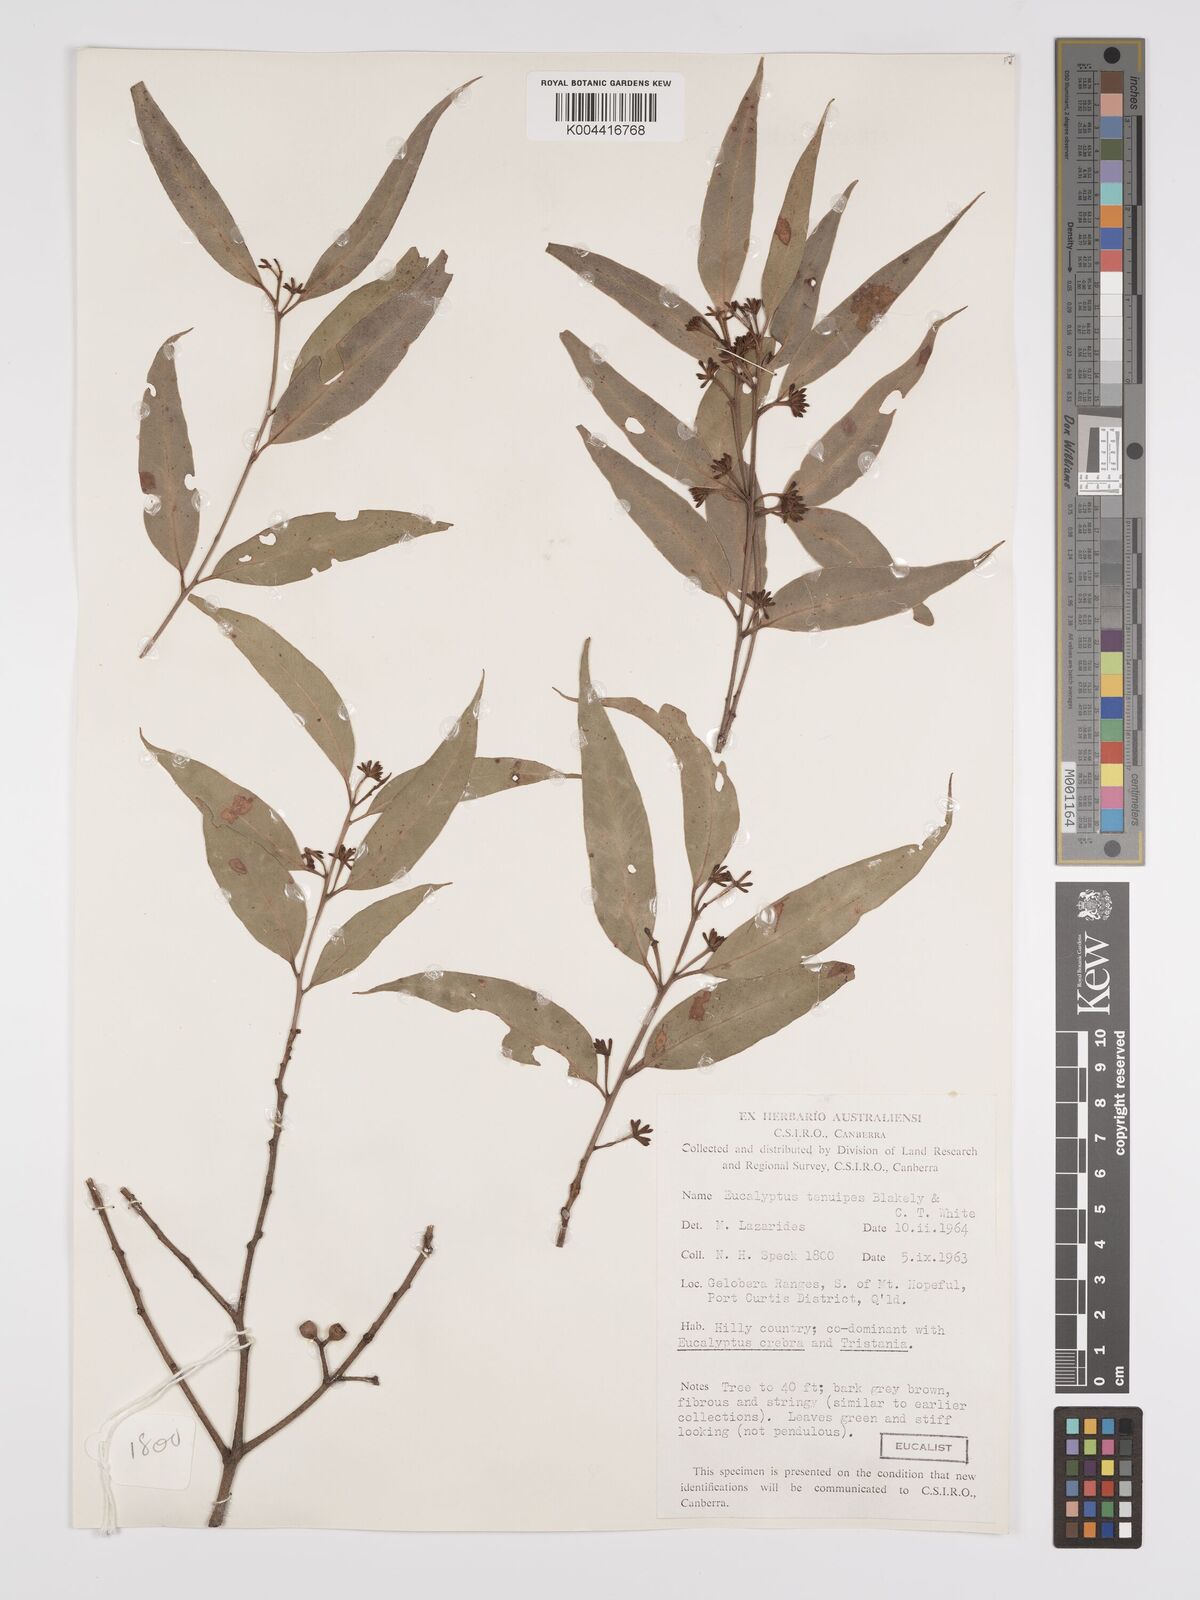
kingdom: Plantae
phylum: Tracheophyta
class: Magnoliopsida
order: Myrtales
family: Myrtaceae
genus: Eucalyptus
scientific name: Eucalyptus tenuipes
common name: Narrow-leaved white mahogany
